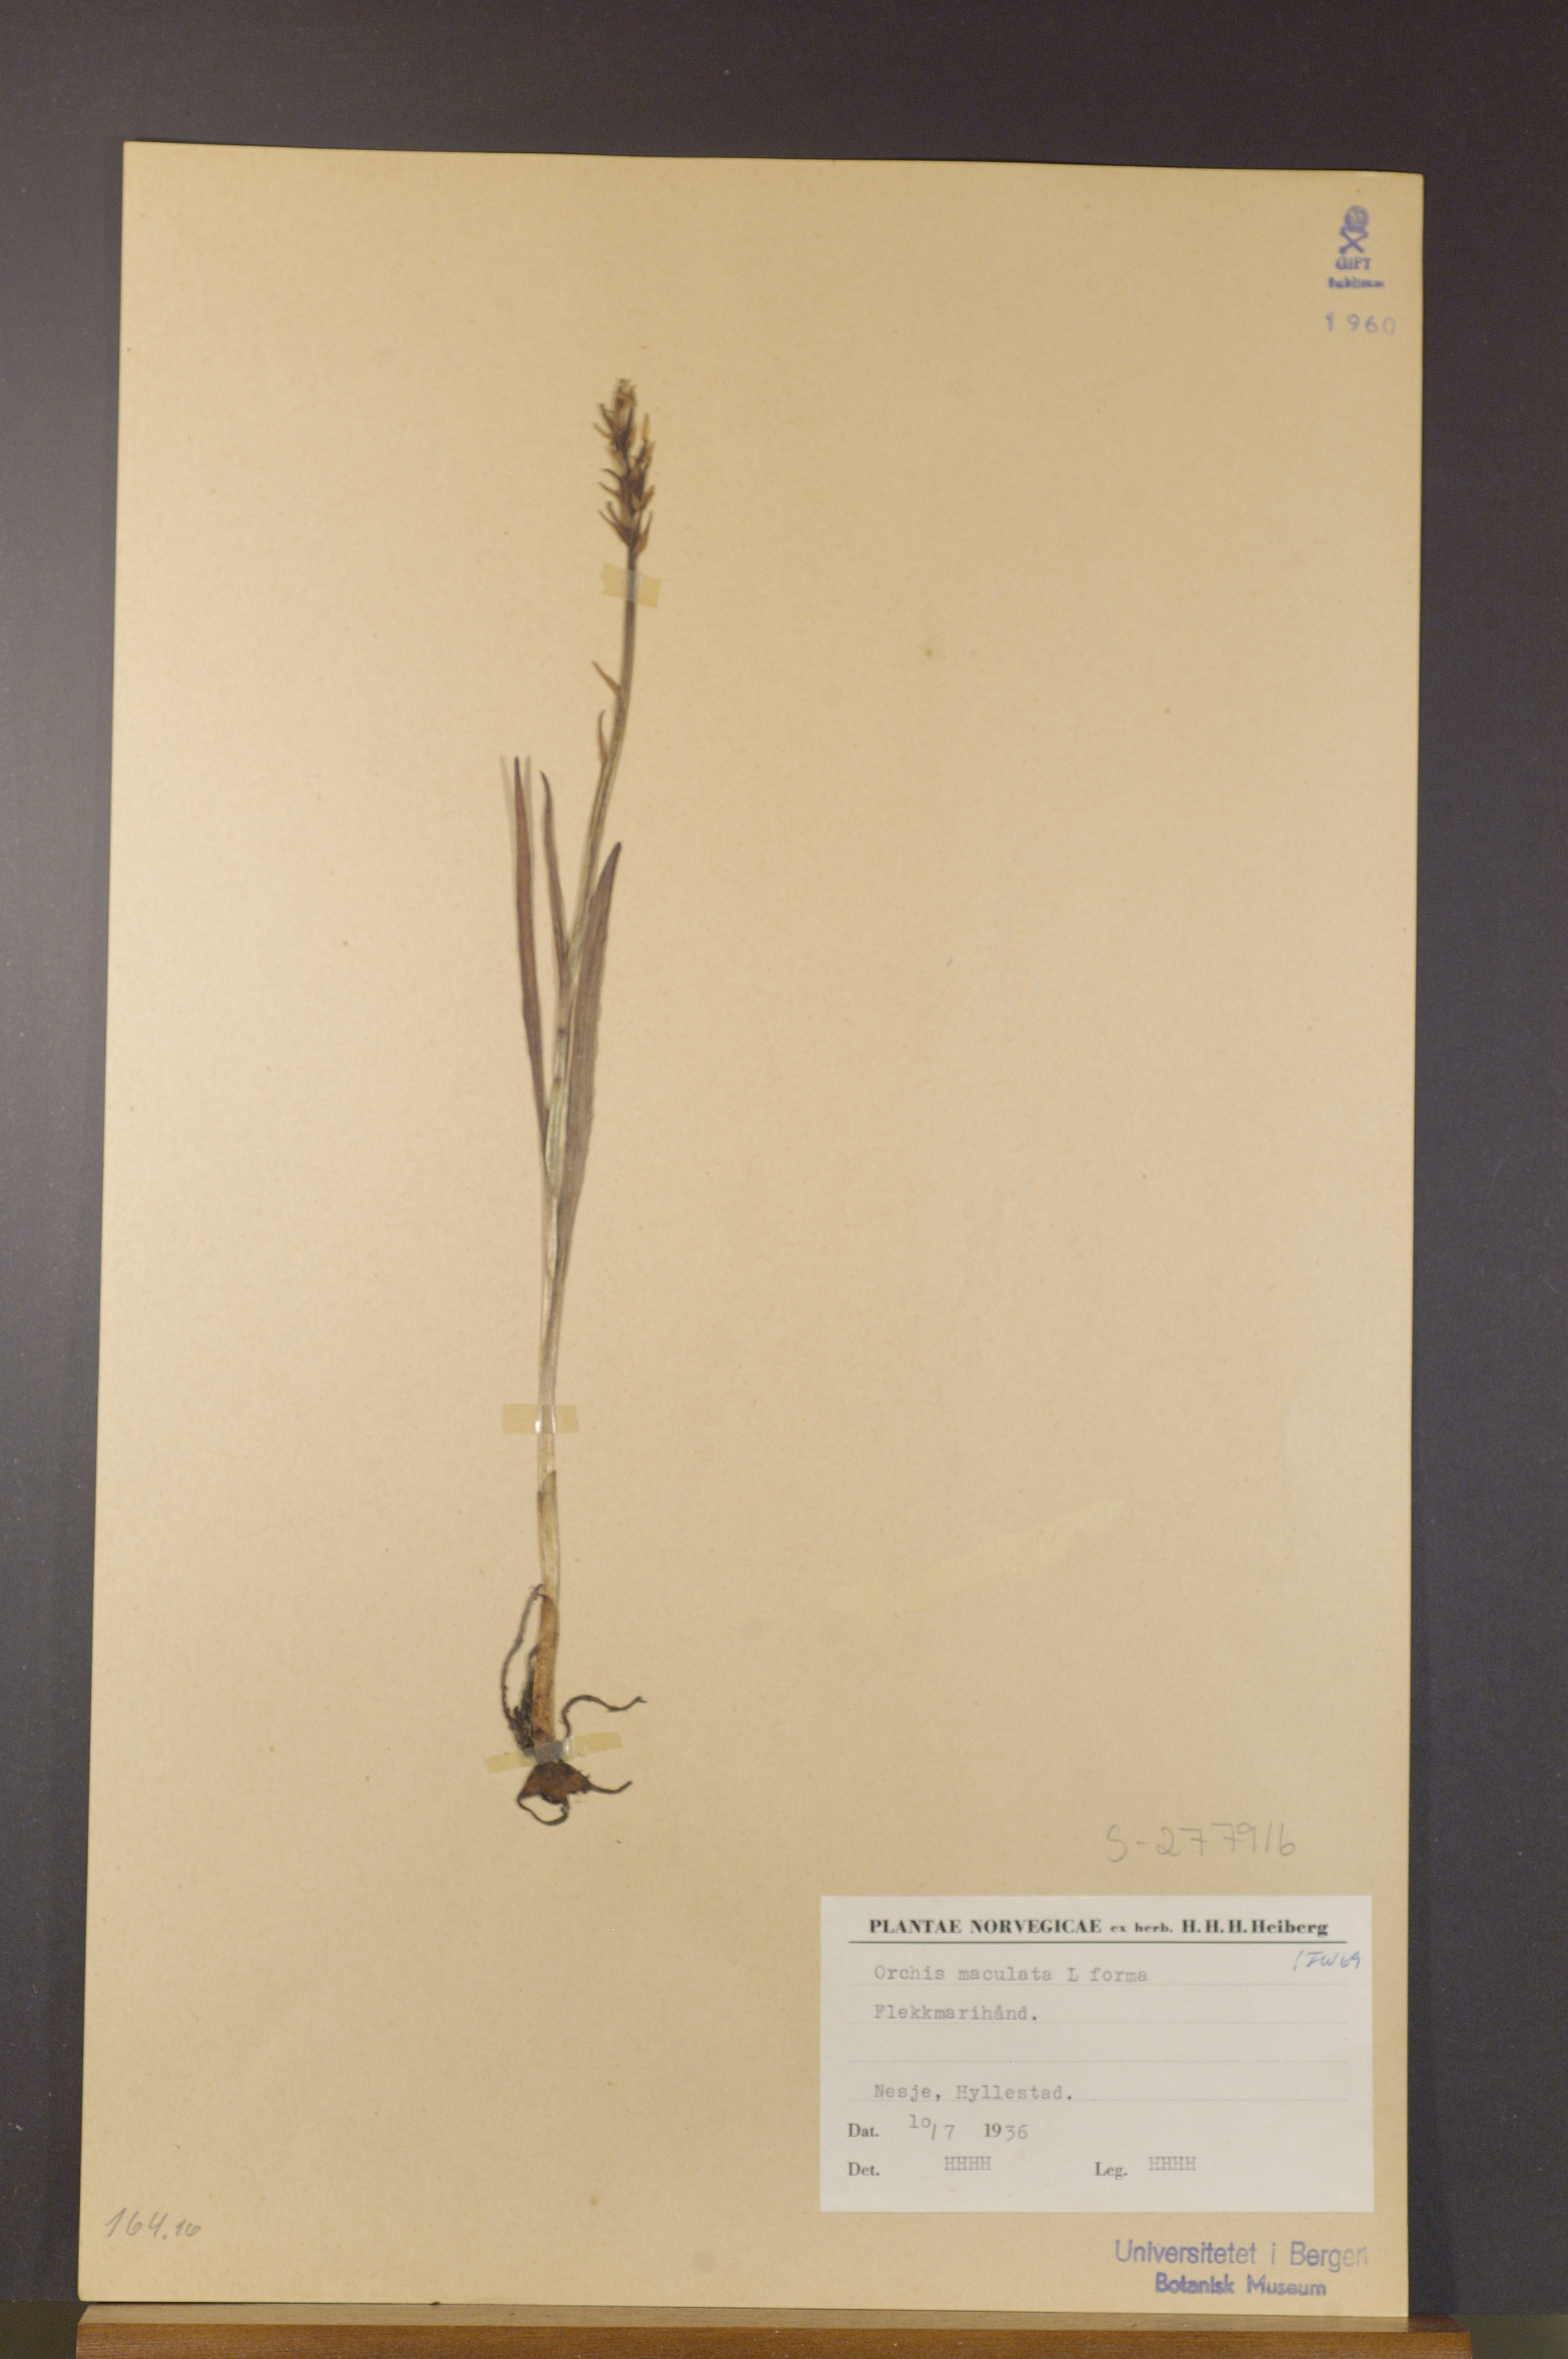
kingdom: Plantae
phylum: Tracheophyta
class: Liliopsida
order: Asparagales
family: Orchidaceae
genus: Dactylorhiza
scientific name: Dactylorhiza maculata
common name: Heath spotted-orchid
